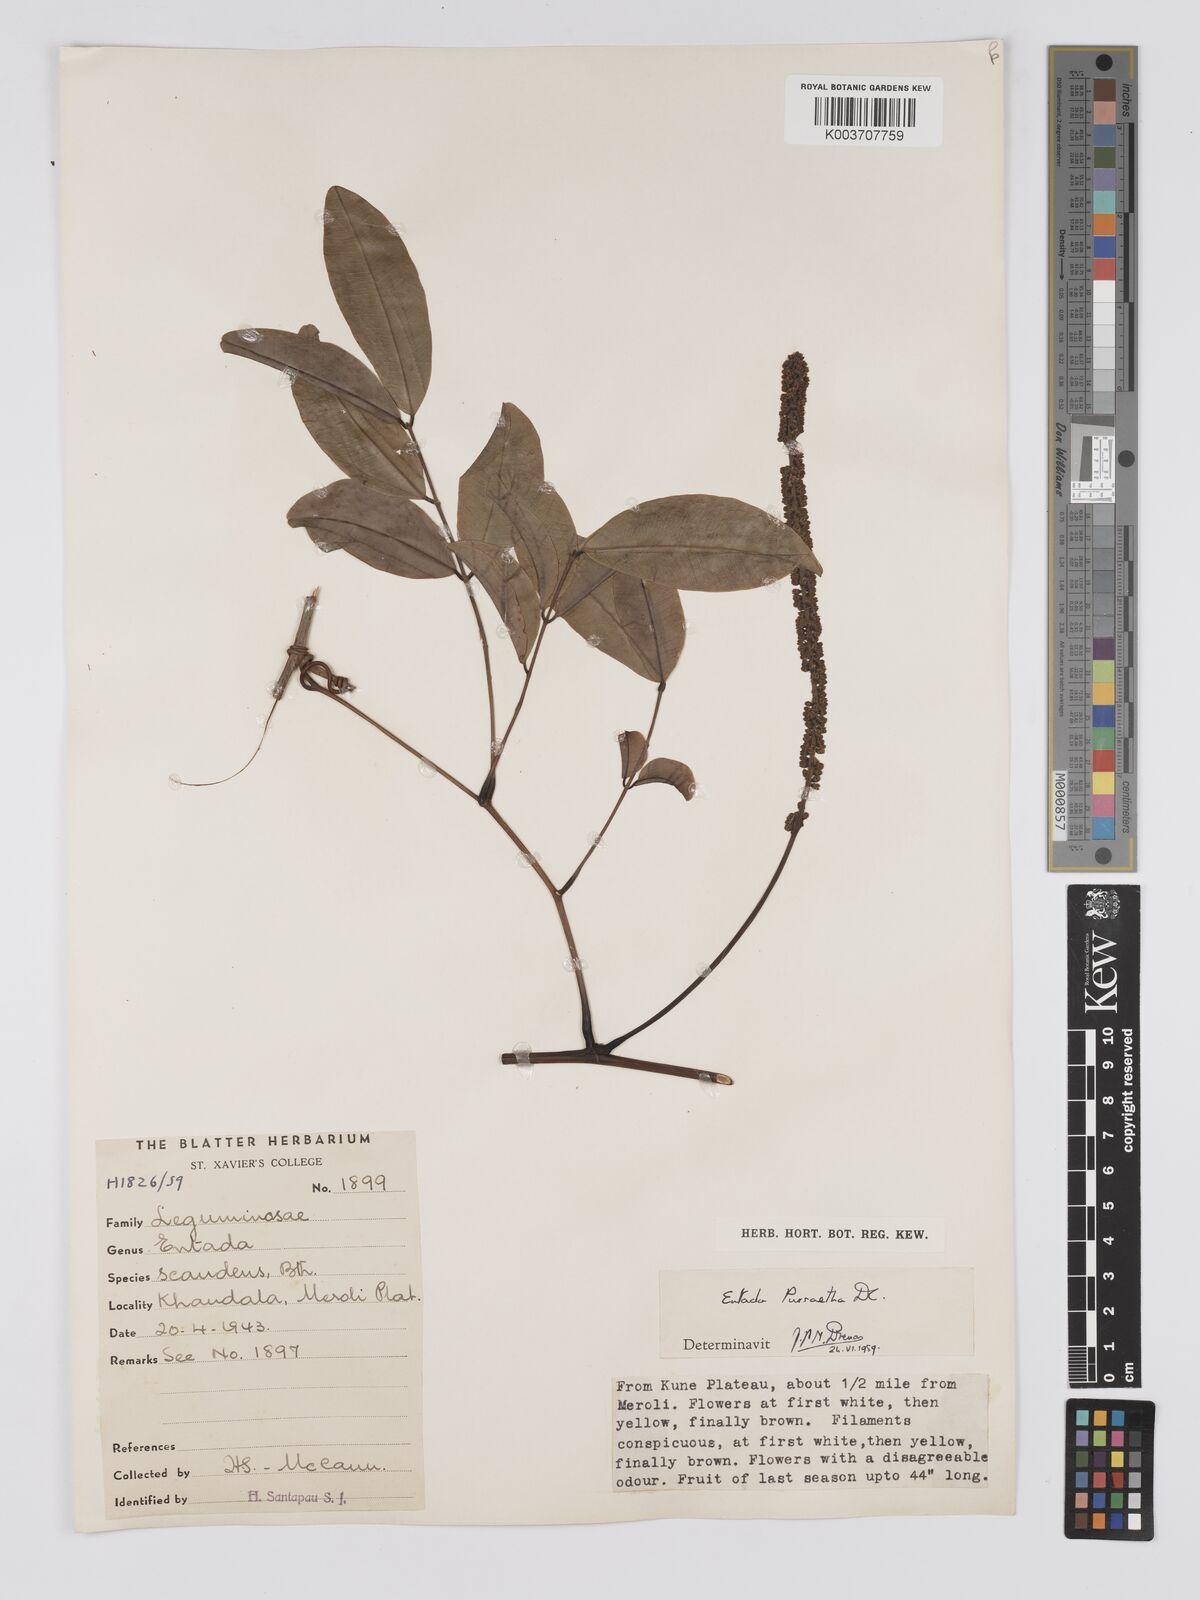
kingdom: Plantae
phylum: Tracheophyta
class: Magnoliopsida
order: Fabales
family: Fabaceae
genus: Entada
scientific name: Entada rheedei
